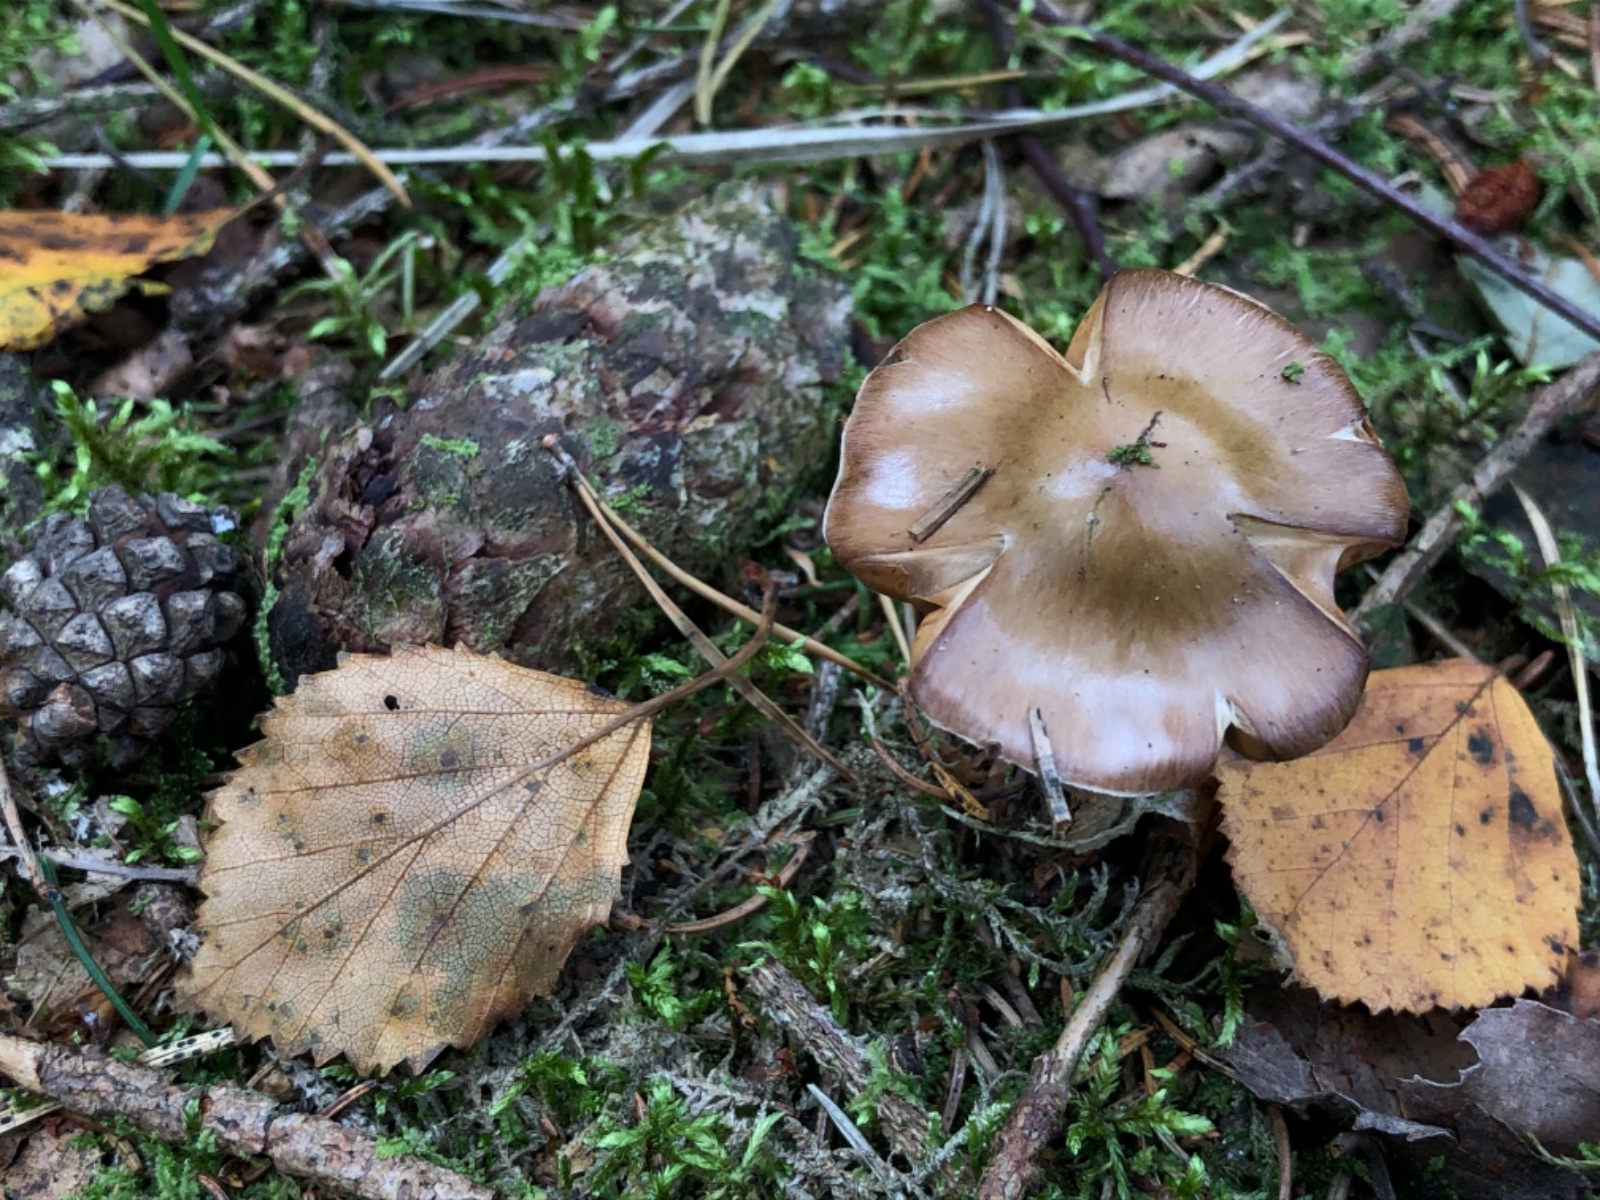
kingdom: Fungi
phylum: Basidiomycota
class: Agaricomycetes
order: Agaricales
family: Cortinariaceae
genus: Cortinarius
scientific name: Cortinarius stillatitius
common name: honningduftende slørhat
